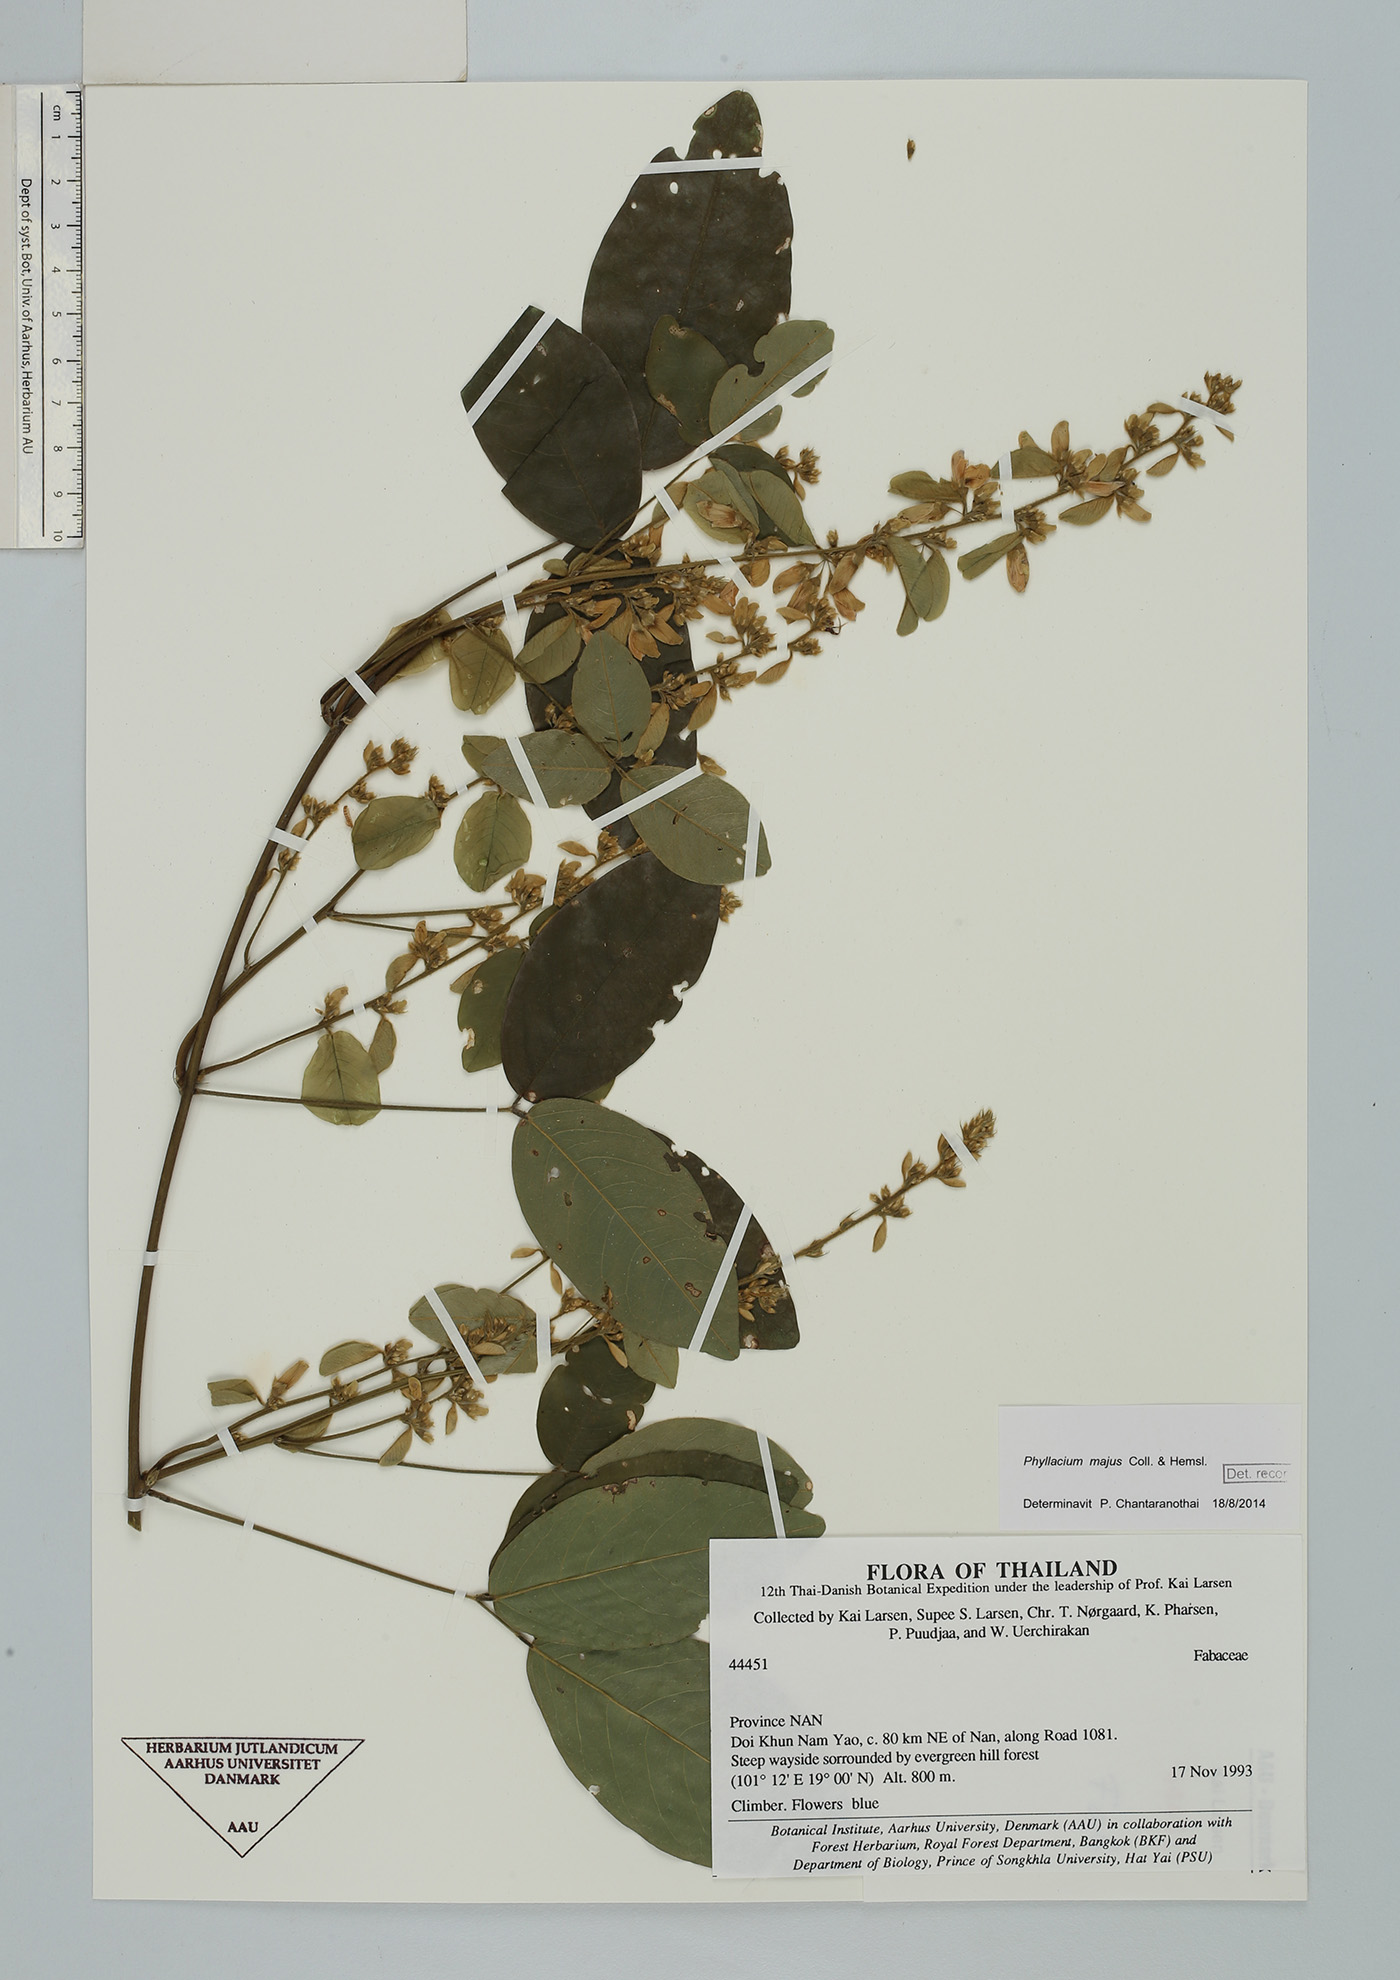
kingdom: Plantae
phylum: Tracheophyta
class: Magnoliopsida
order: Fabales
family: Fabaceae
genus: Phylacium
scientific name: Phylacium majus
